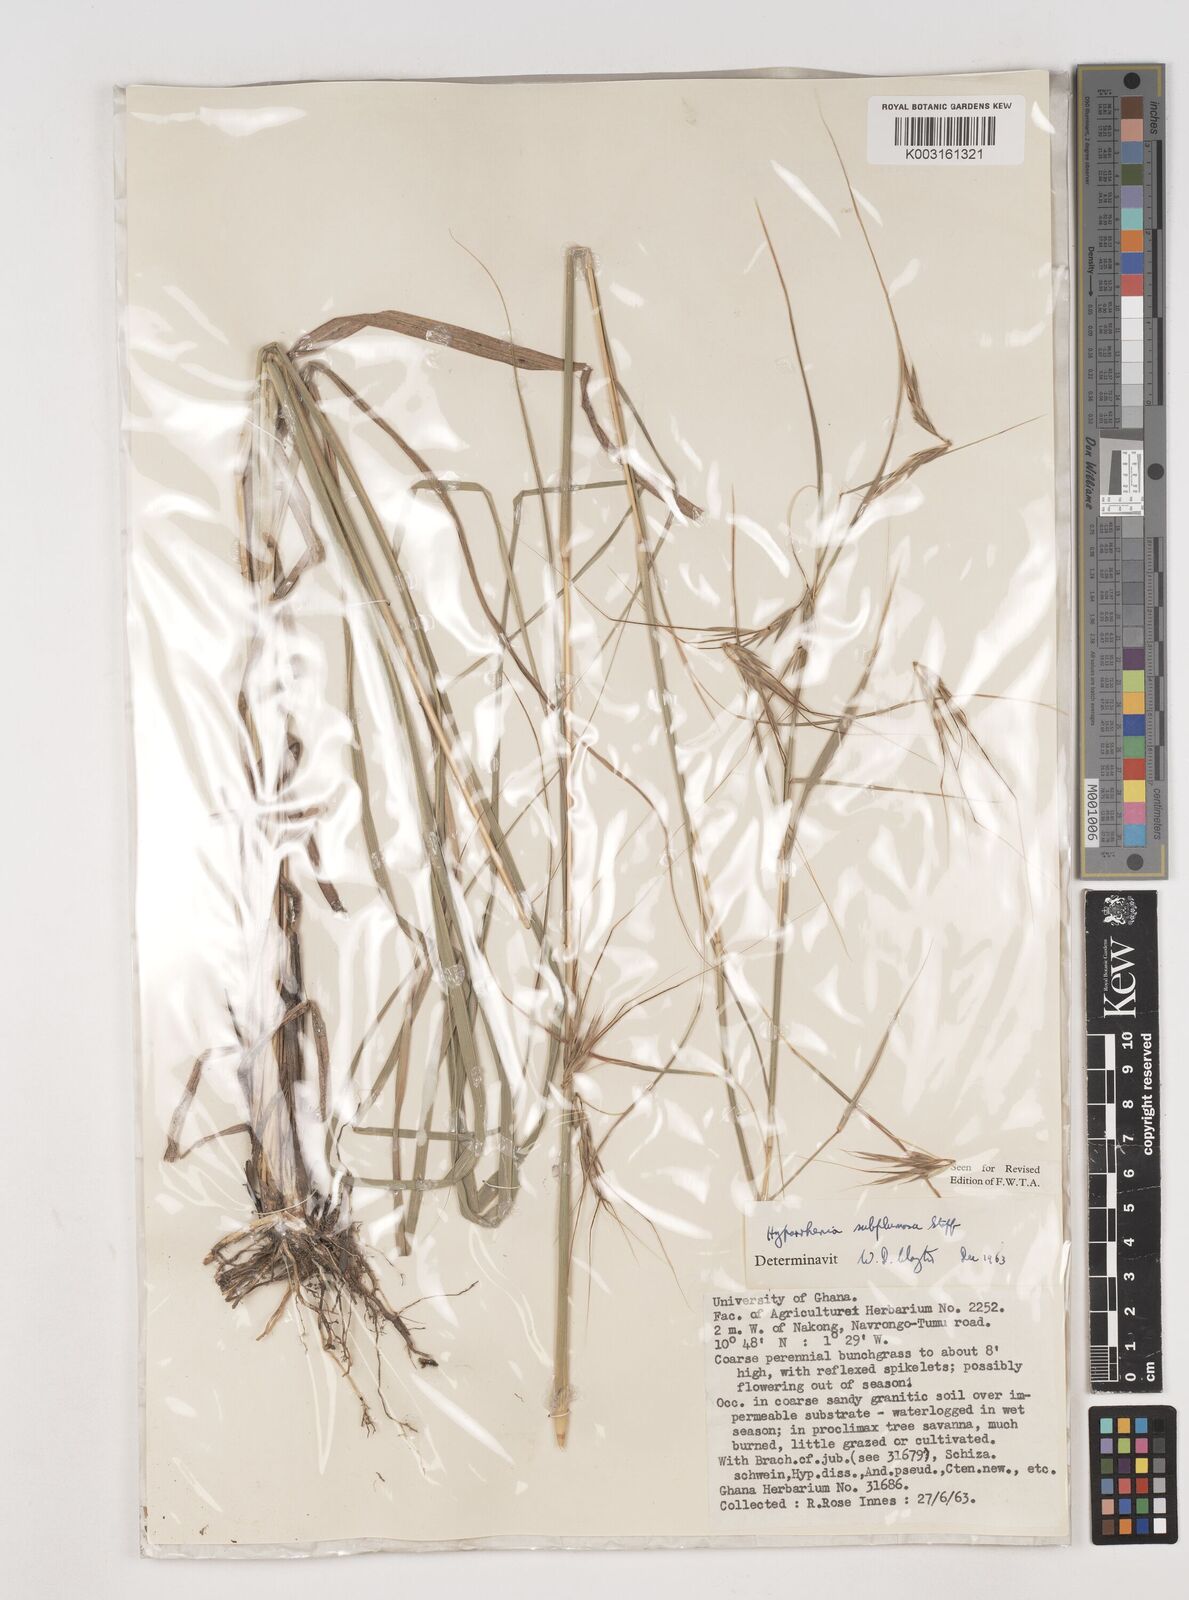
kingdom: Plantae
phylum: Tracheophyta
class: Liliopsida
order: Poales
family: Poaceae
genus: Hyparrhenia
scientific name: Hyparrhenia subplumosa
